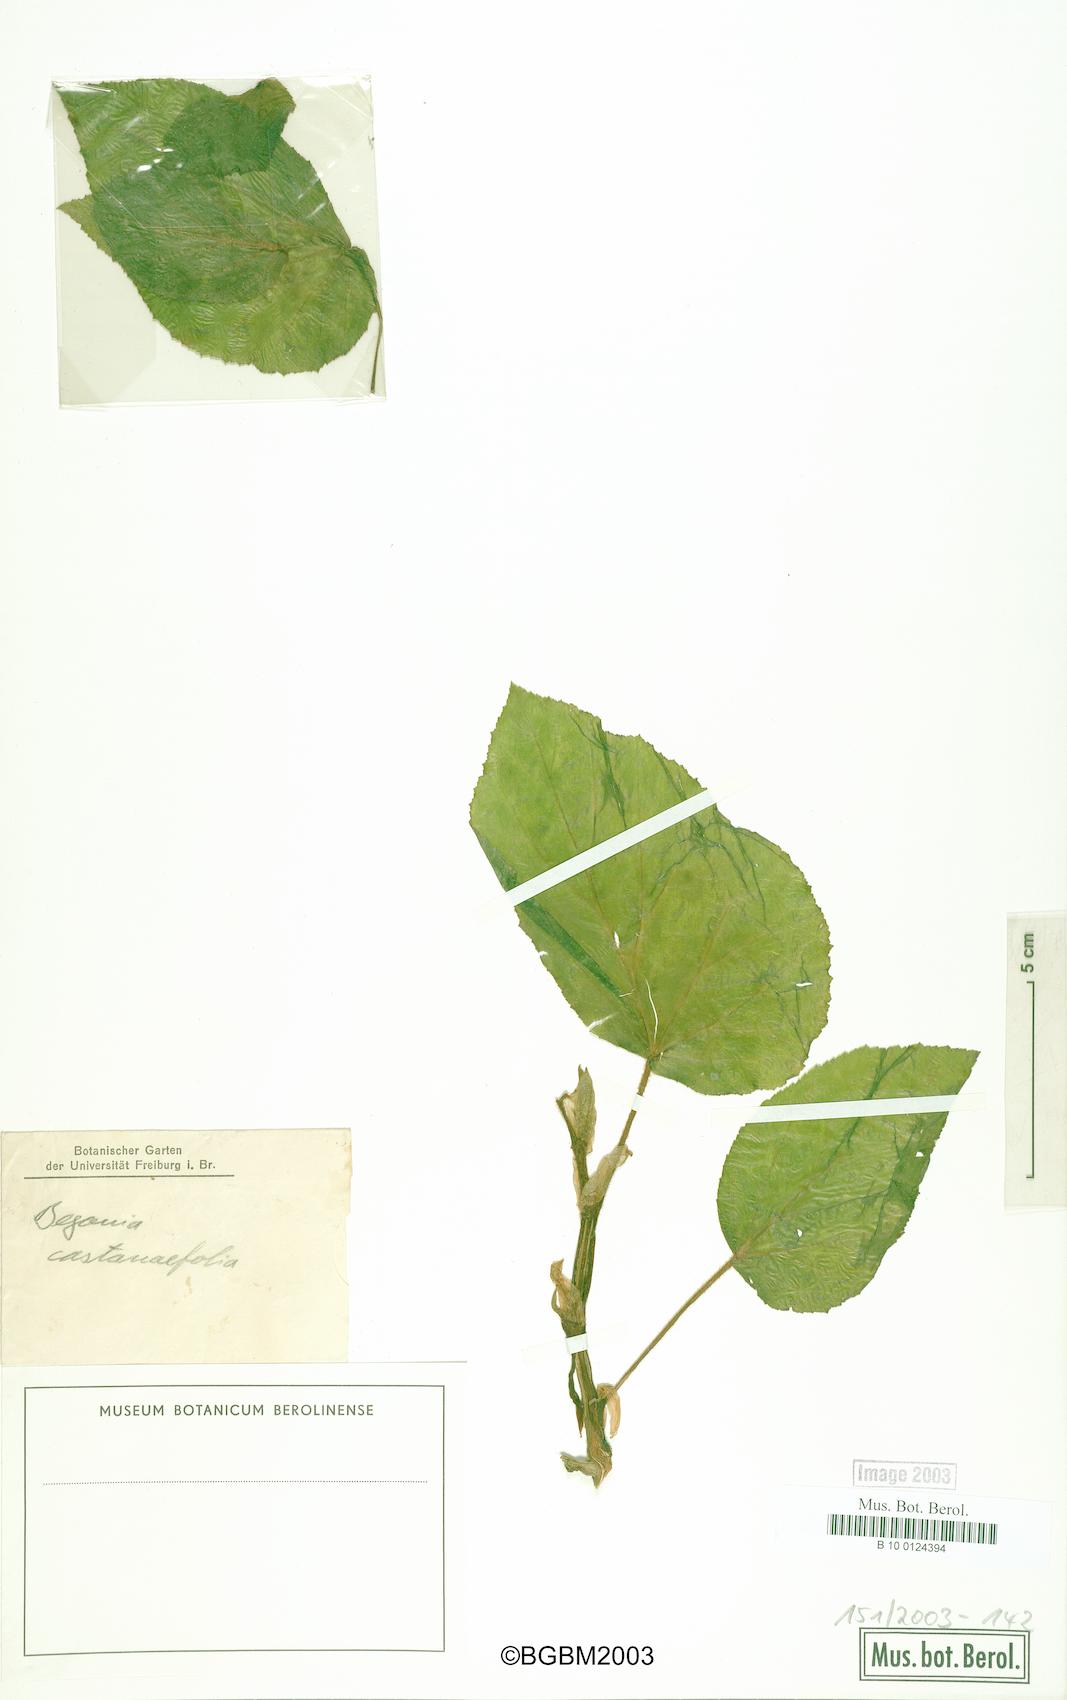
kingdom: Plantae
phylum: Tracheophyta
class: Magnoliopsida
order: Cucurbitales
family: Begoniaceae
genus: Begonia
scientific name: Begonia scharffiana
